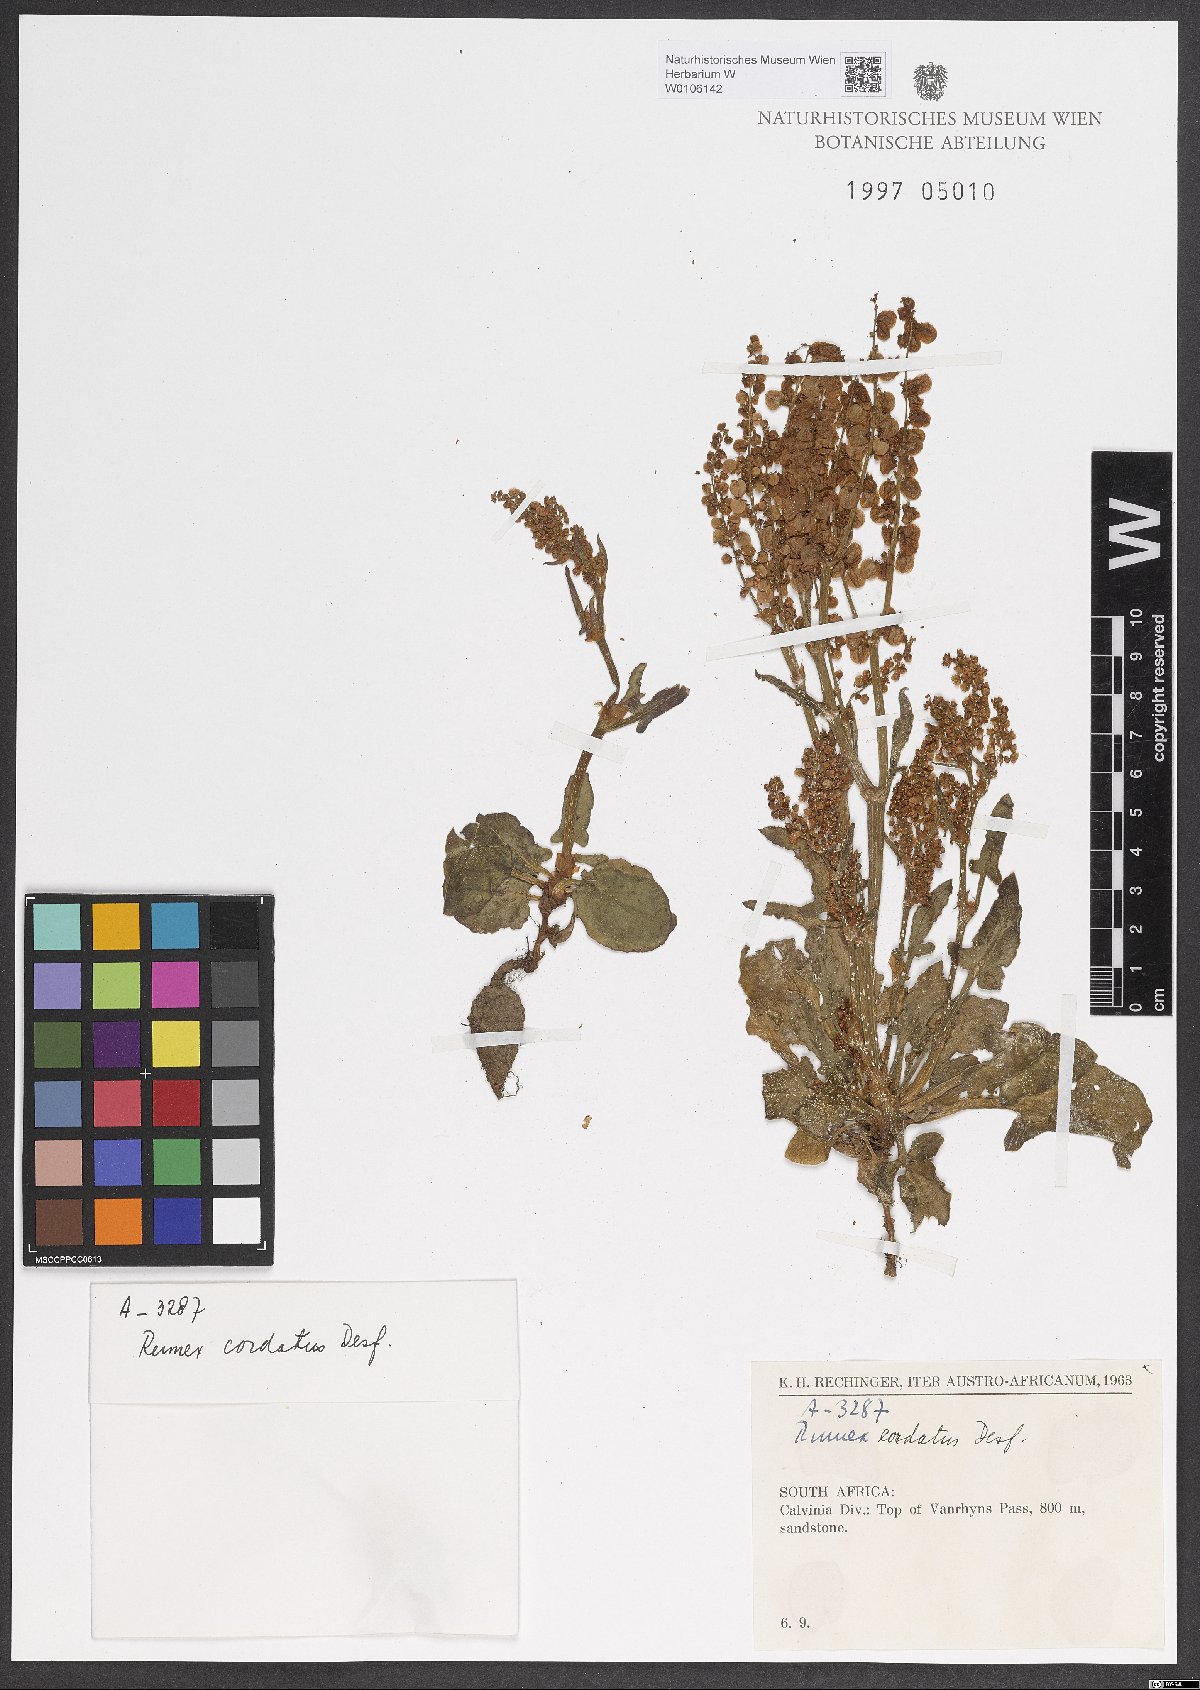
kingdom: Plantae
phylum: Tracheophyta
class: Magnoliopsida
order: Caryophyllales
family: Polygonaceae
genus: Rumex
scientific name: Rumex cordatus
